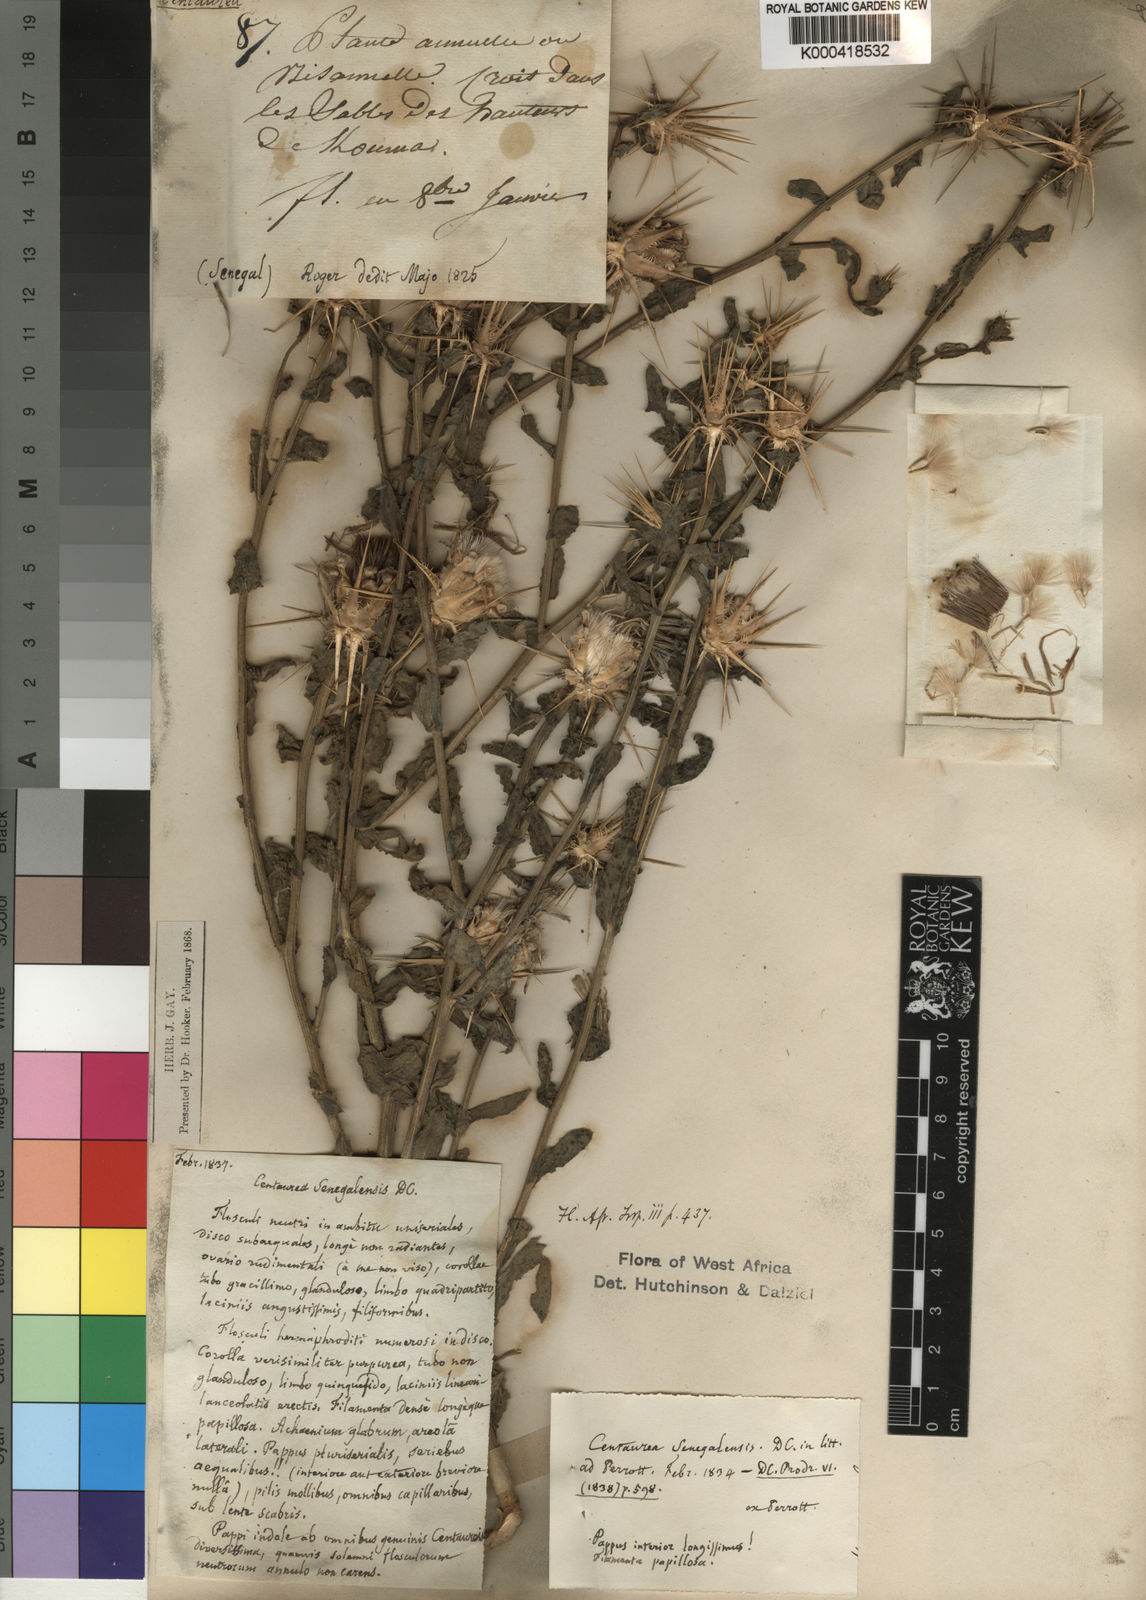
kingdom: Plantae
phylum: Tracheophyta
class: Magnoliopsida
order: Asterales
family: Asteraceae
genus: Centaurea
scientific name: Centaurea senegalensis
